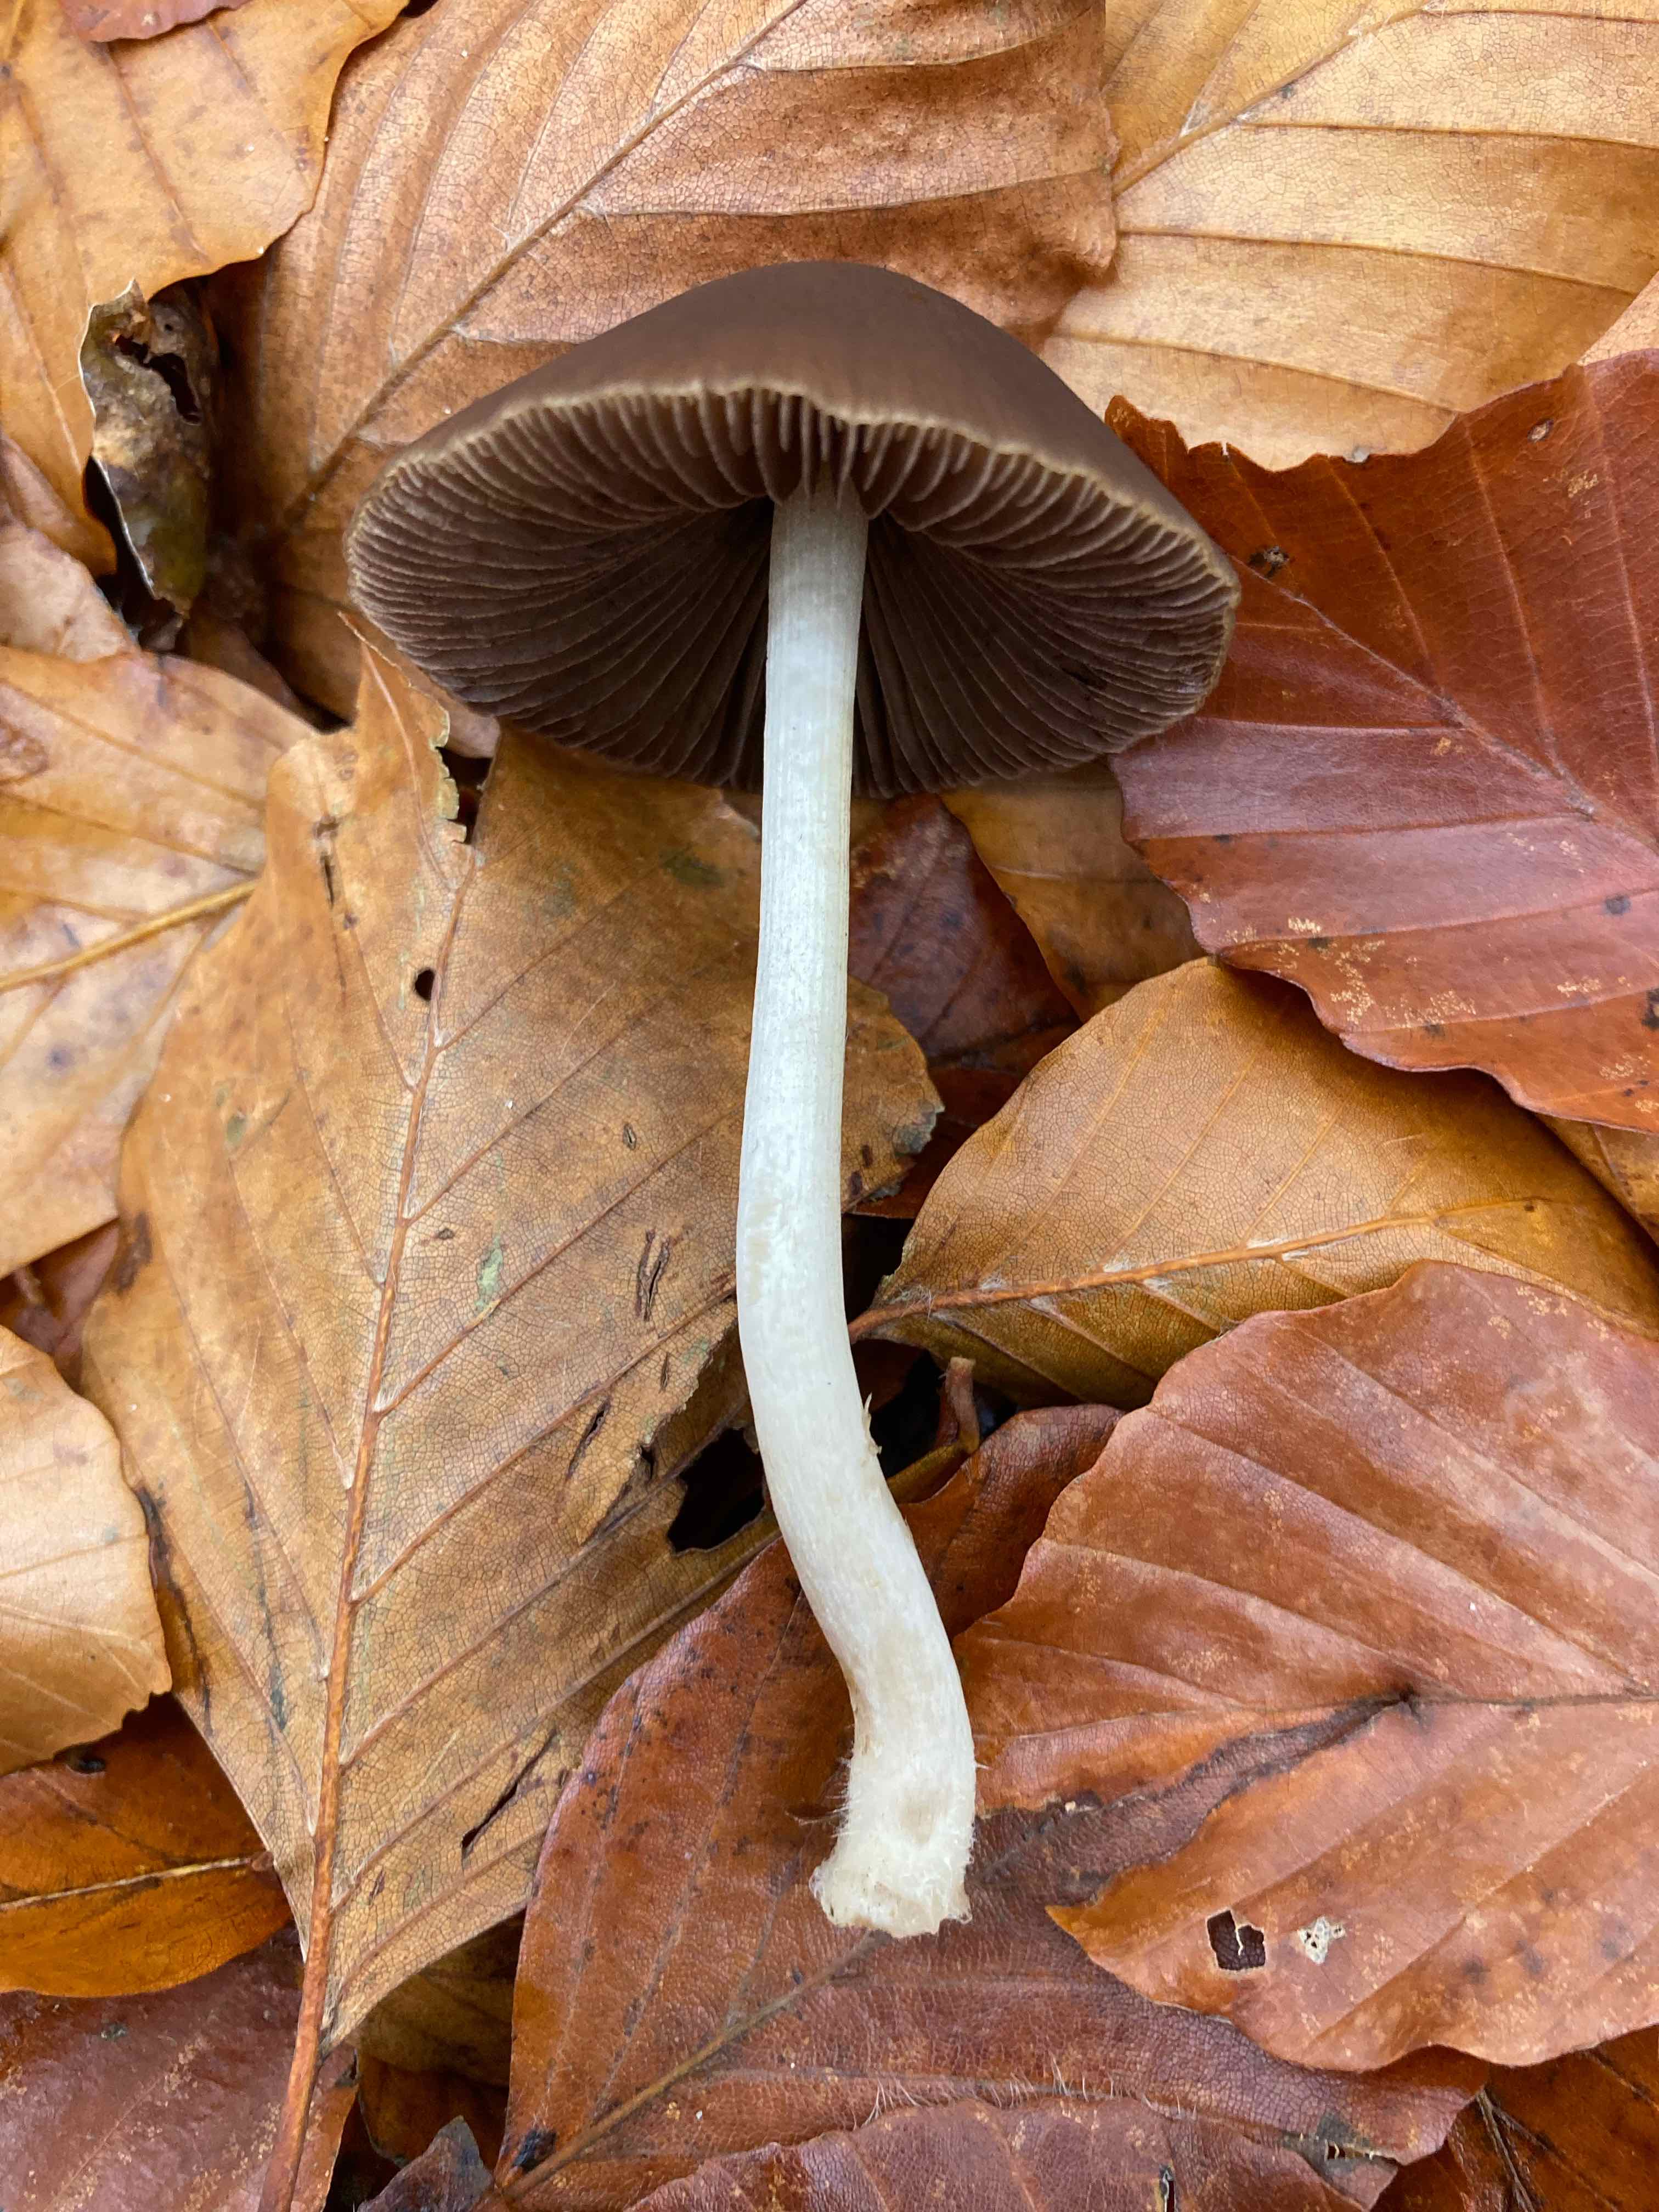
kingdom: Fungi
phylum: Basidiomycota
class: Agaricomycetes
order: Agaricales
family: Psathyrellaceae
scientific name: Psathyrellaceae
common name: mørkhatfamilien
